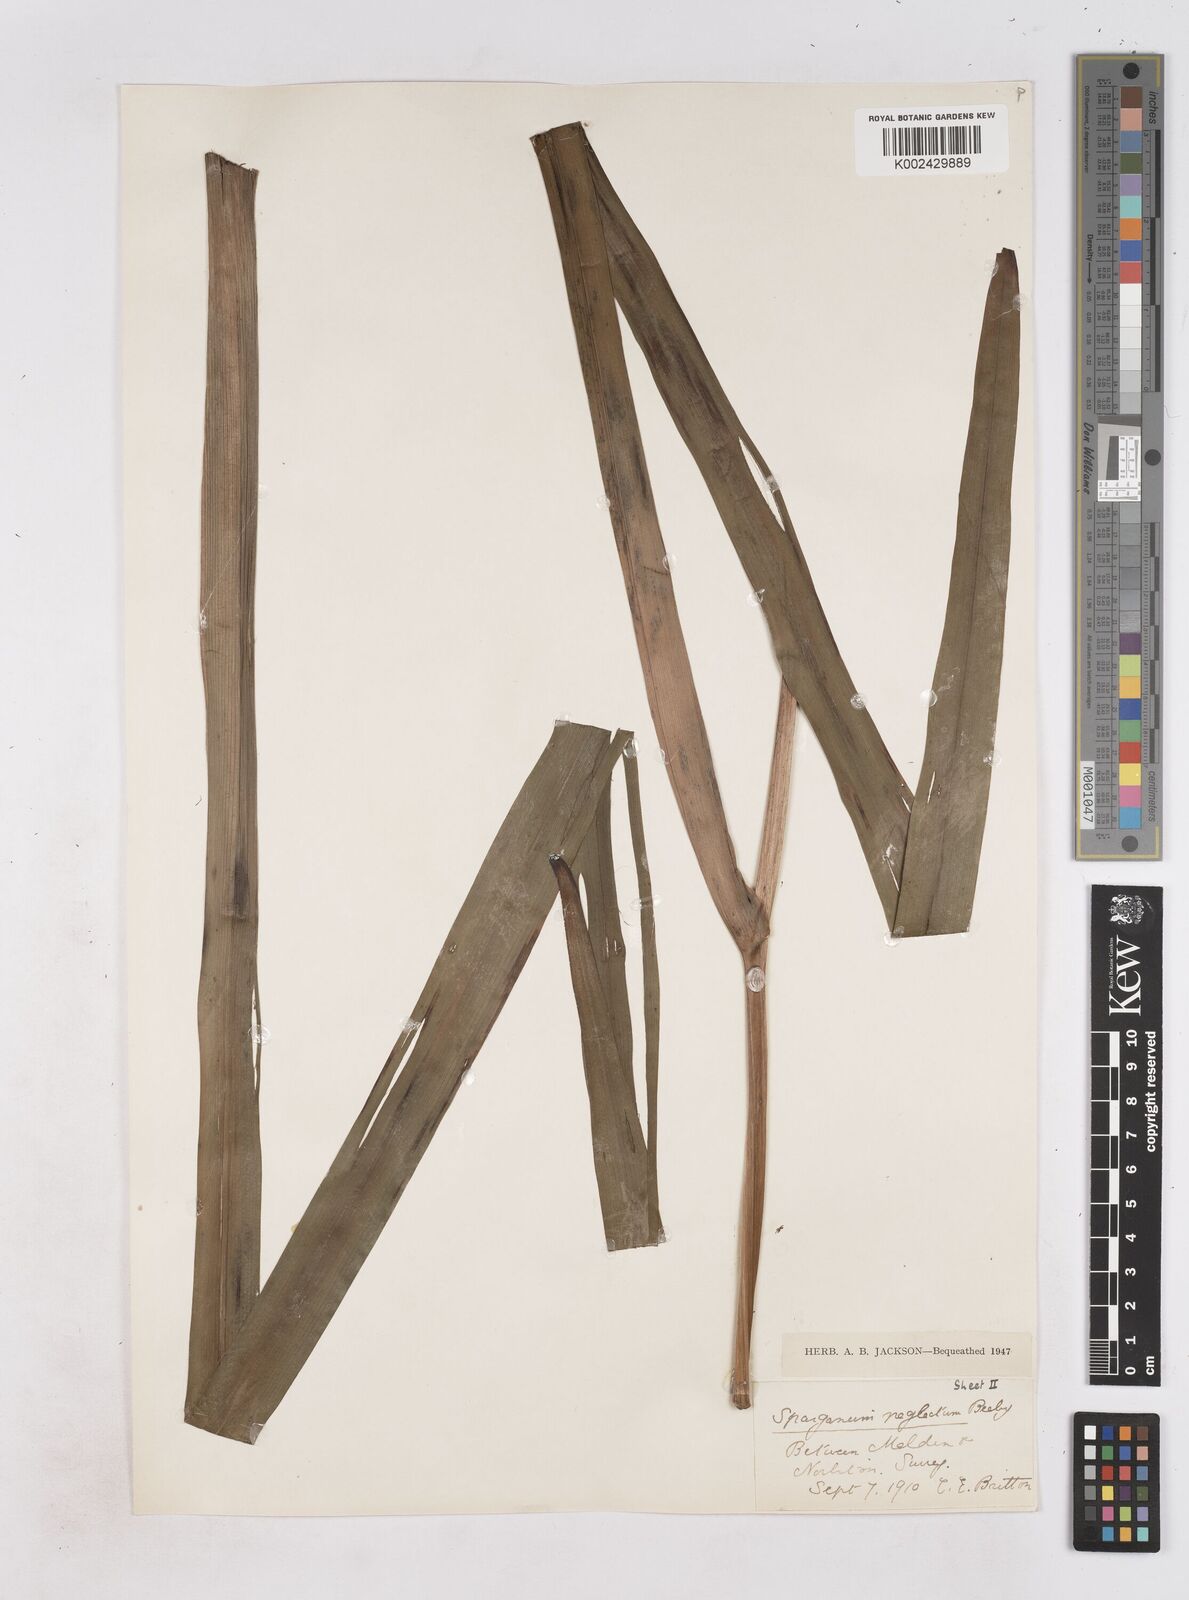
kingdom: Plantae
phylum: Tracheophyta
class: Liliopsida
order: Poales
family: Typhaceae
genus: Sparganium
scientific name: Sparganium erectum
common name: Branched bur-reed
